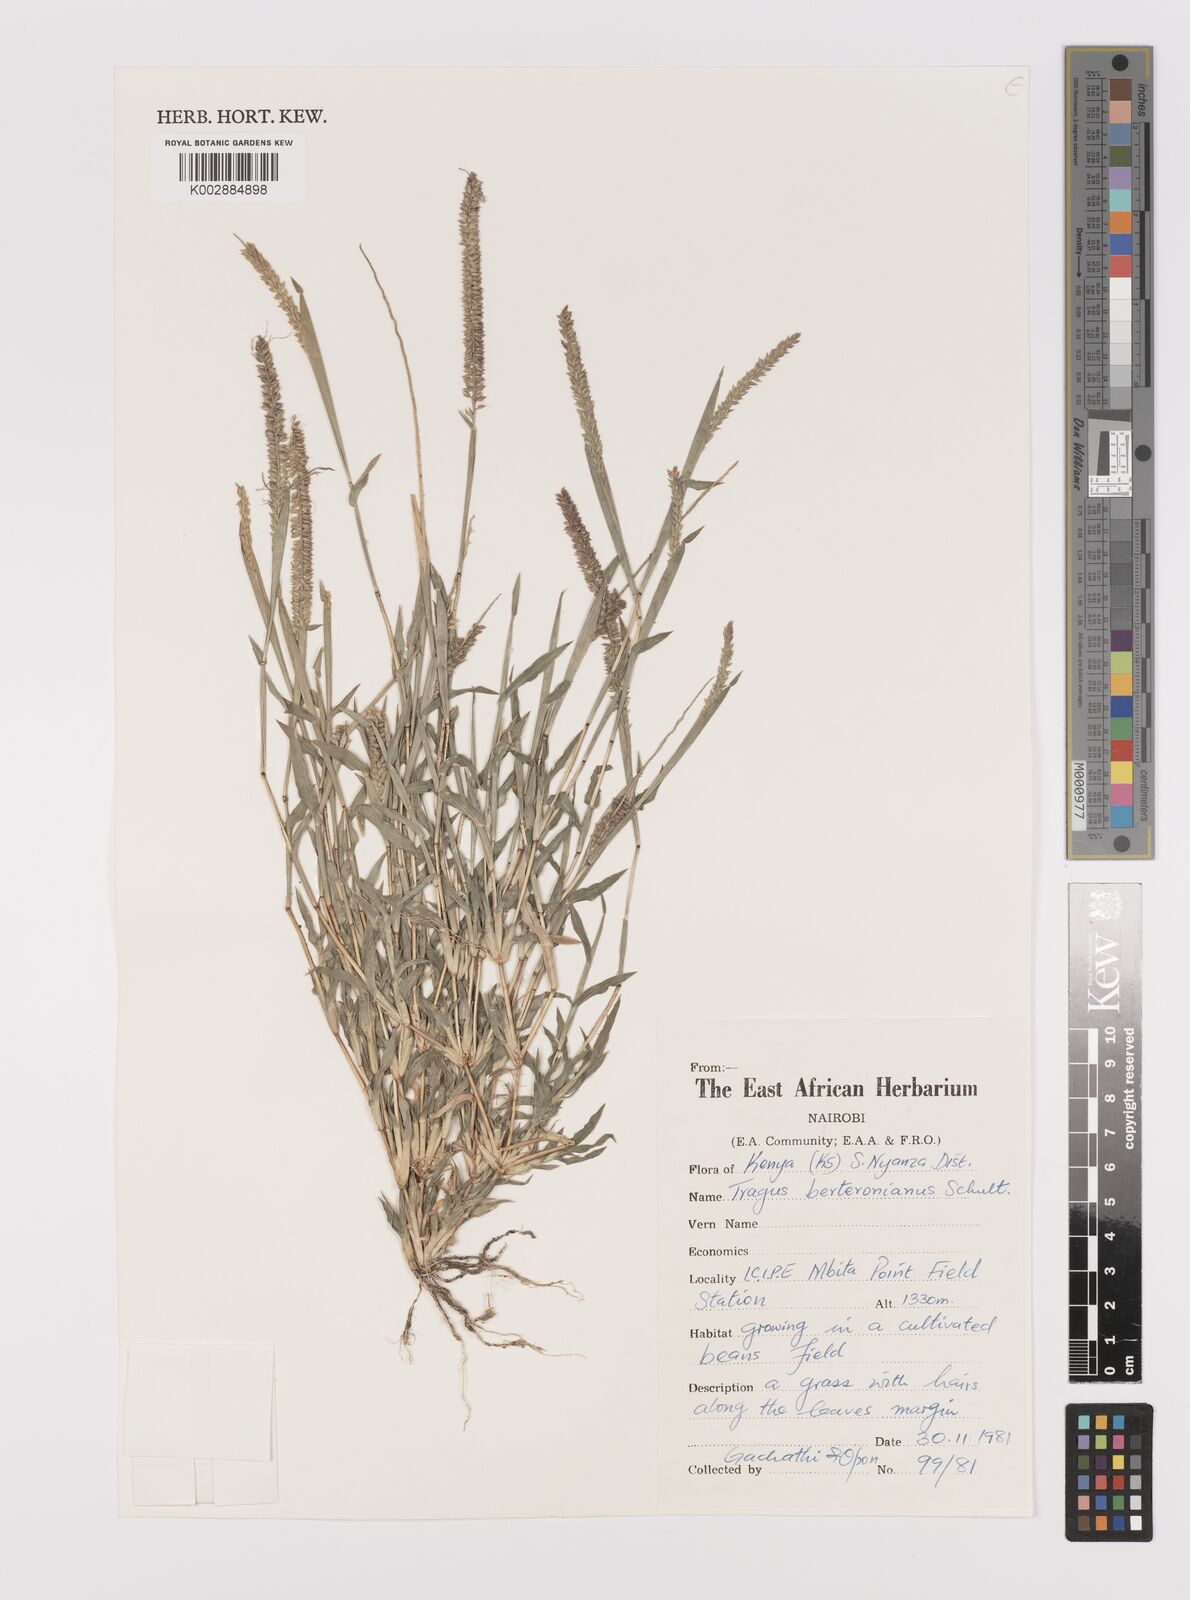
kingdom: Plantae
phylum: Tracheophyta
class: Liliopsida
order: Poales
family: Poaceae
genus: Tragus
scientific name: Tragus berteronianus
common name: African bur-grass
